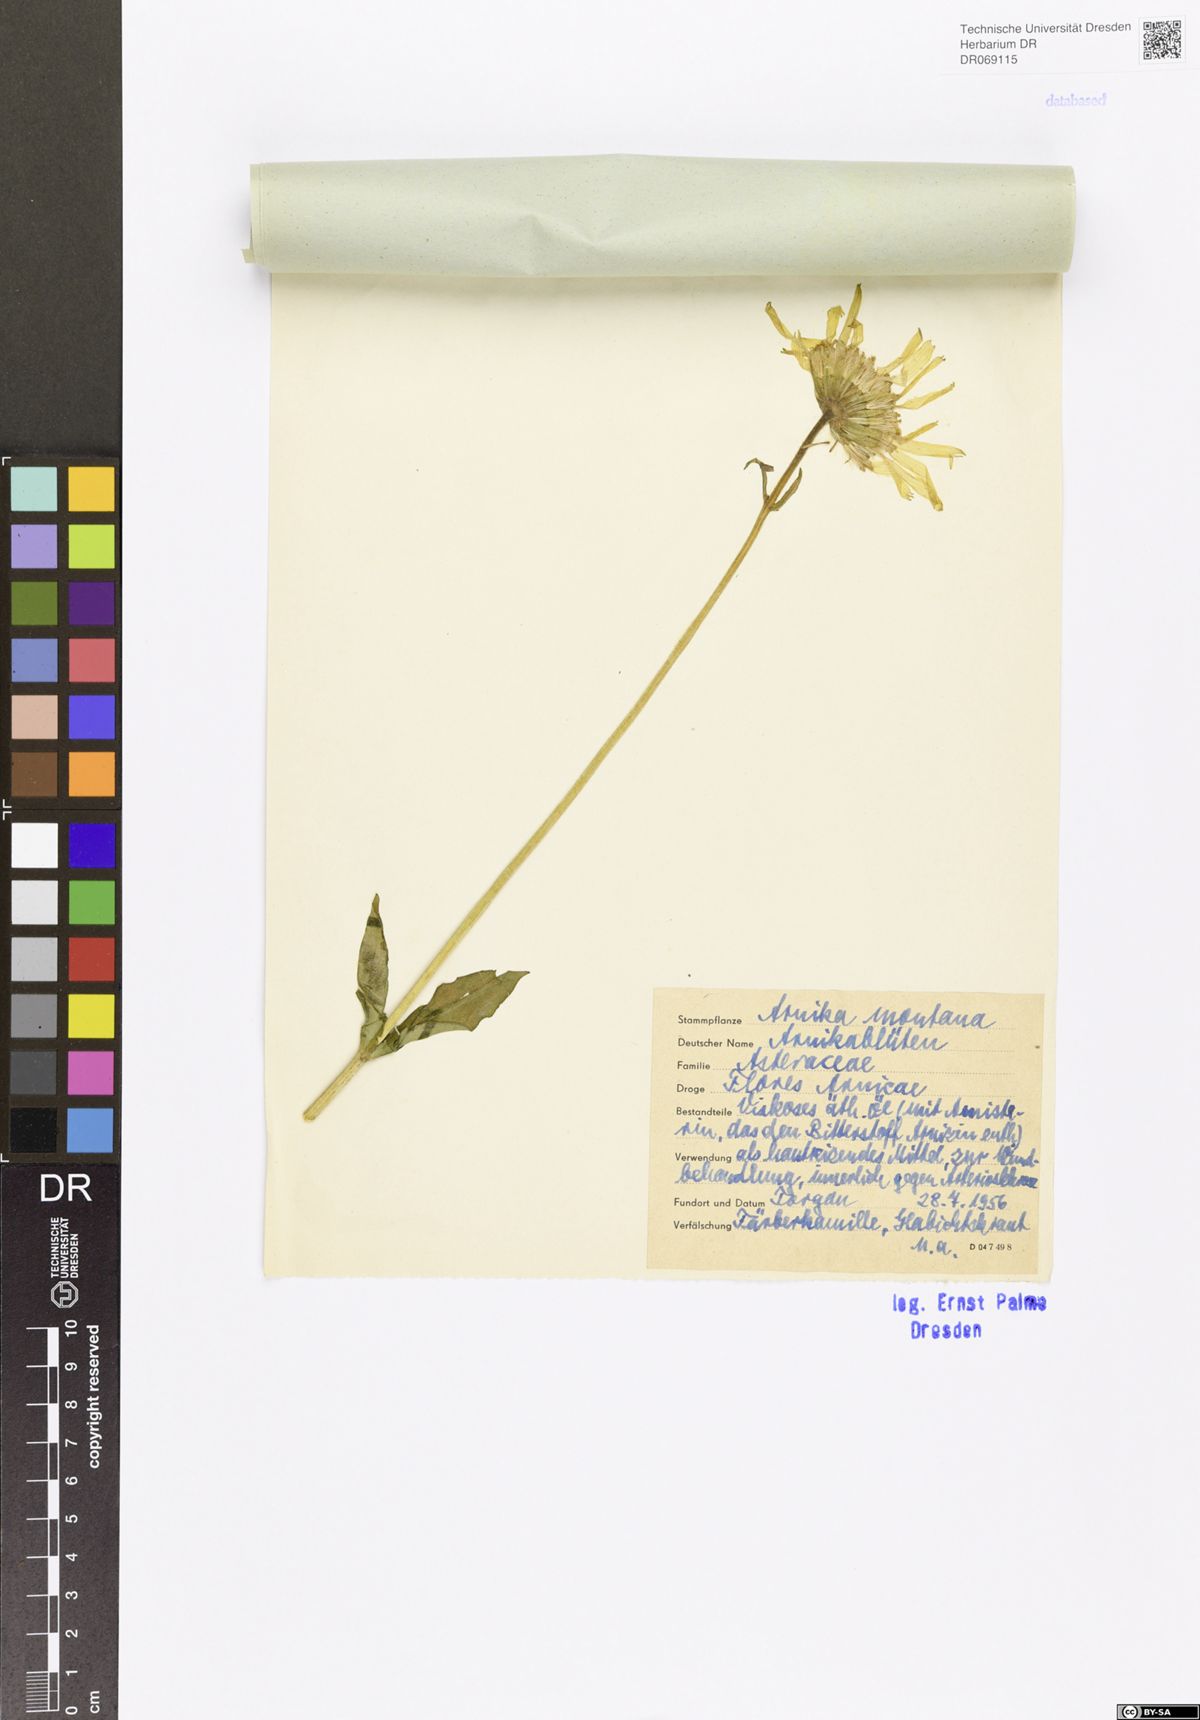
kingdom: Plantae
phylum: Tracheophyta
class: Magnoliopsida
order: Asterales
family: Asteraceae
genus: Arnica
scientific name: Arnica montana
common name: Leopard's bane
